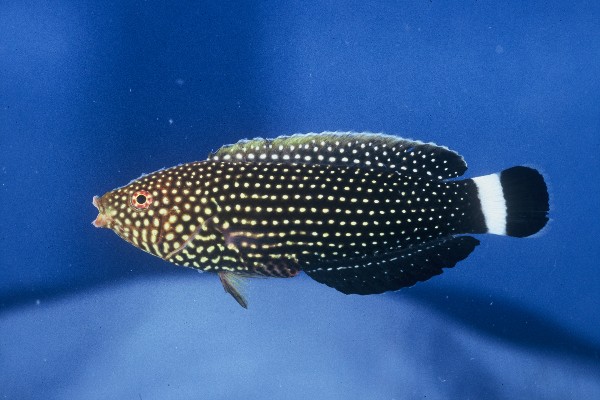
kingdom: Animalia
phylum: Chordata
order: Perciformes
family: Labridae
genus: Anampses
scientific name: Anampses lineatus
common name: Lined wrasse
